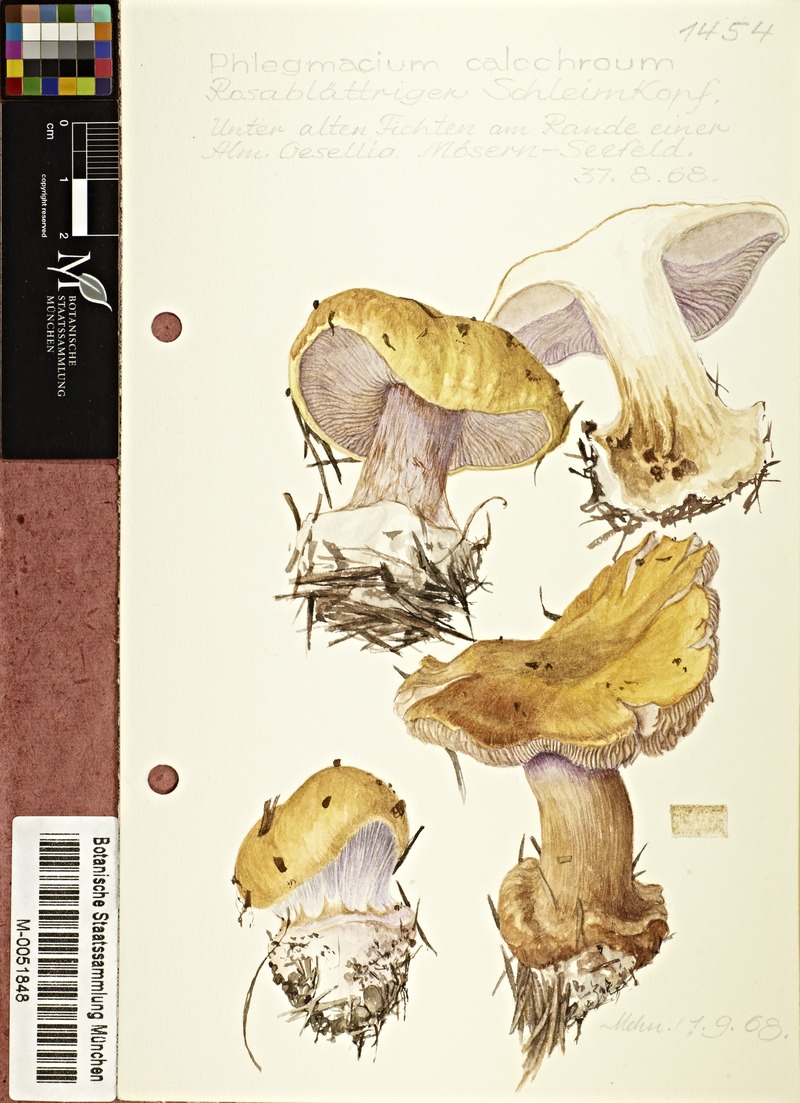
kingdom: Fungi
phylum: Basidiomycota
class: Agaricomycetes
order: Agaricales
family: Cortinariaceae
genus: Cortinarius
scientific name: Cortinarius calochrous
